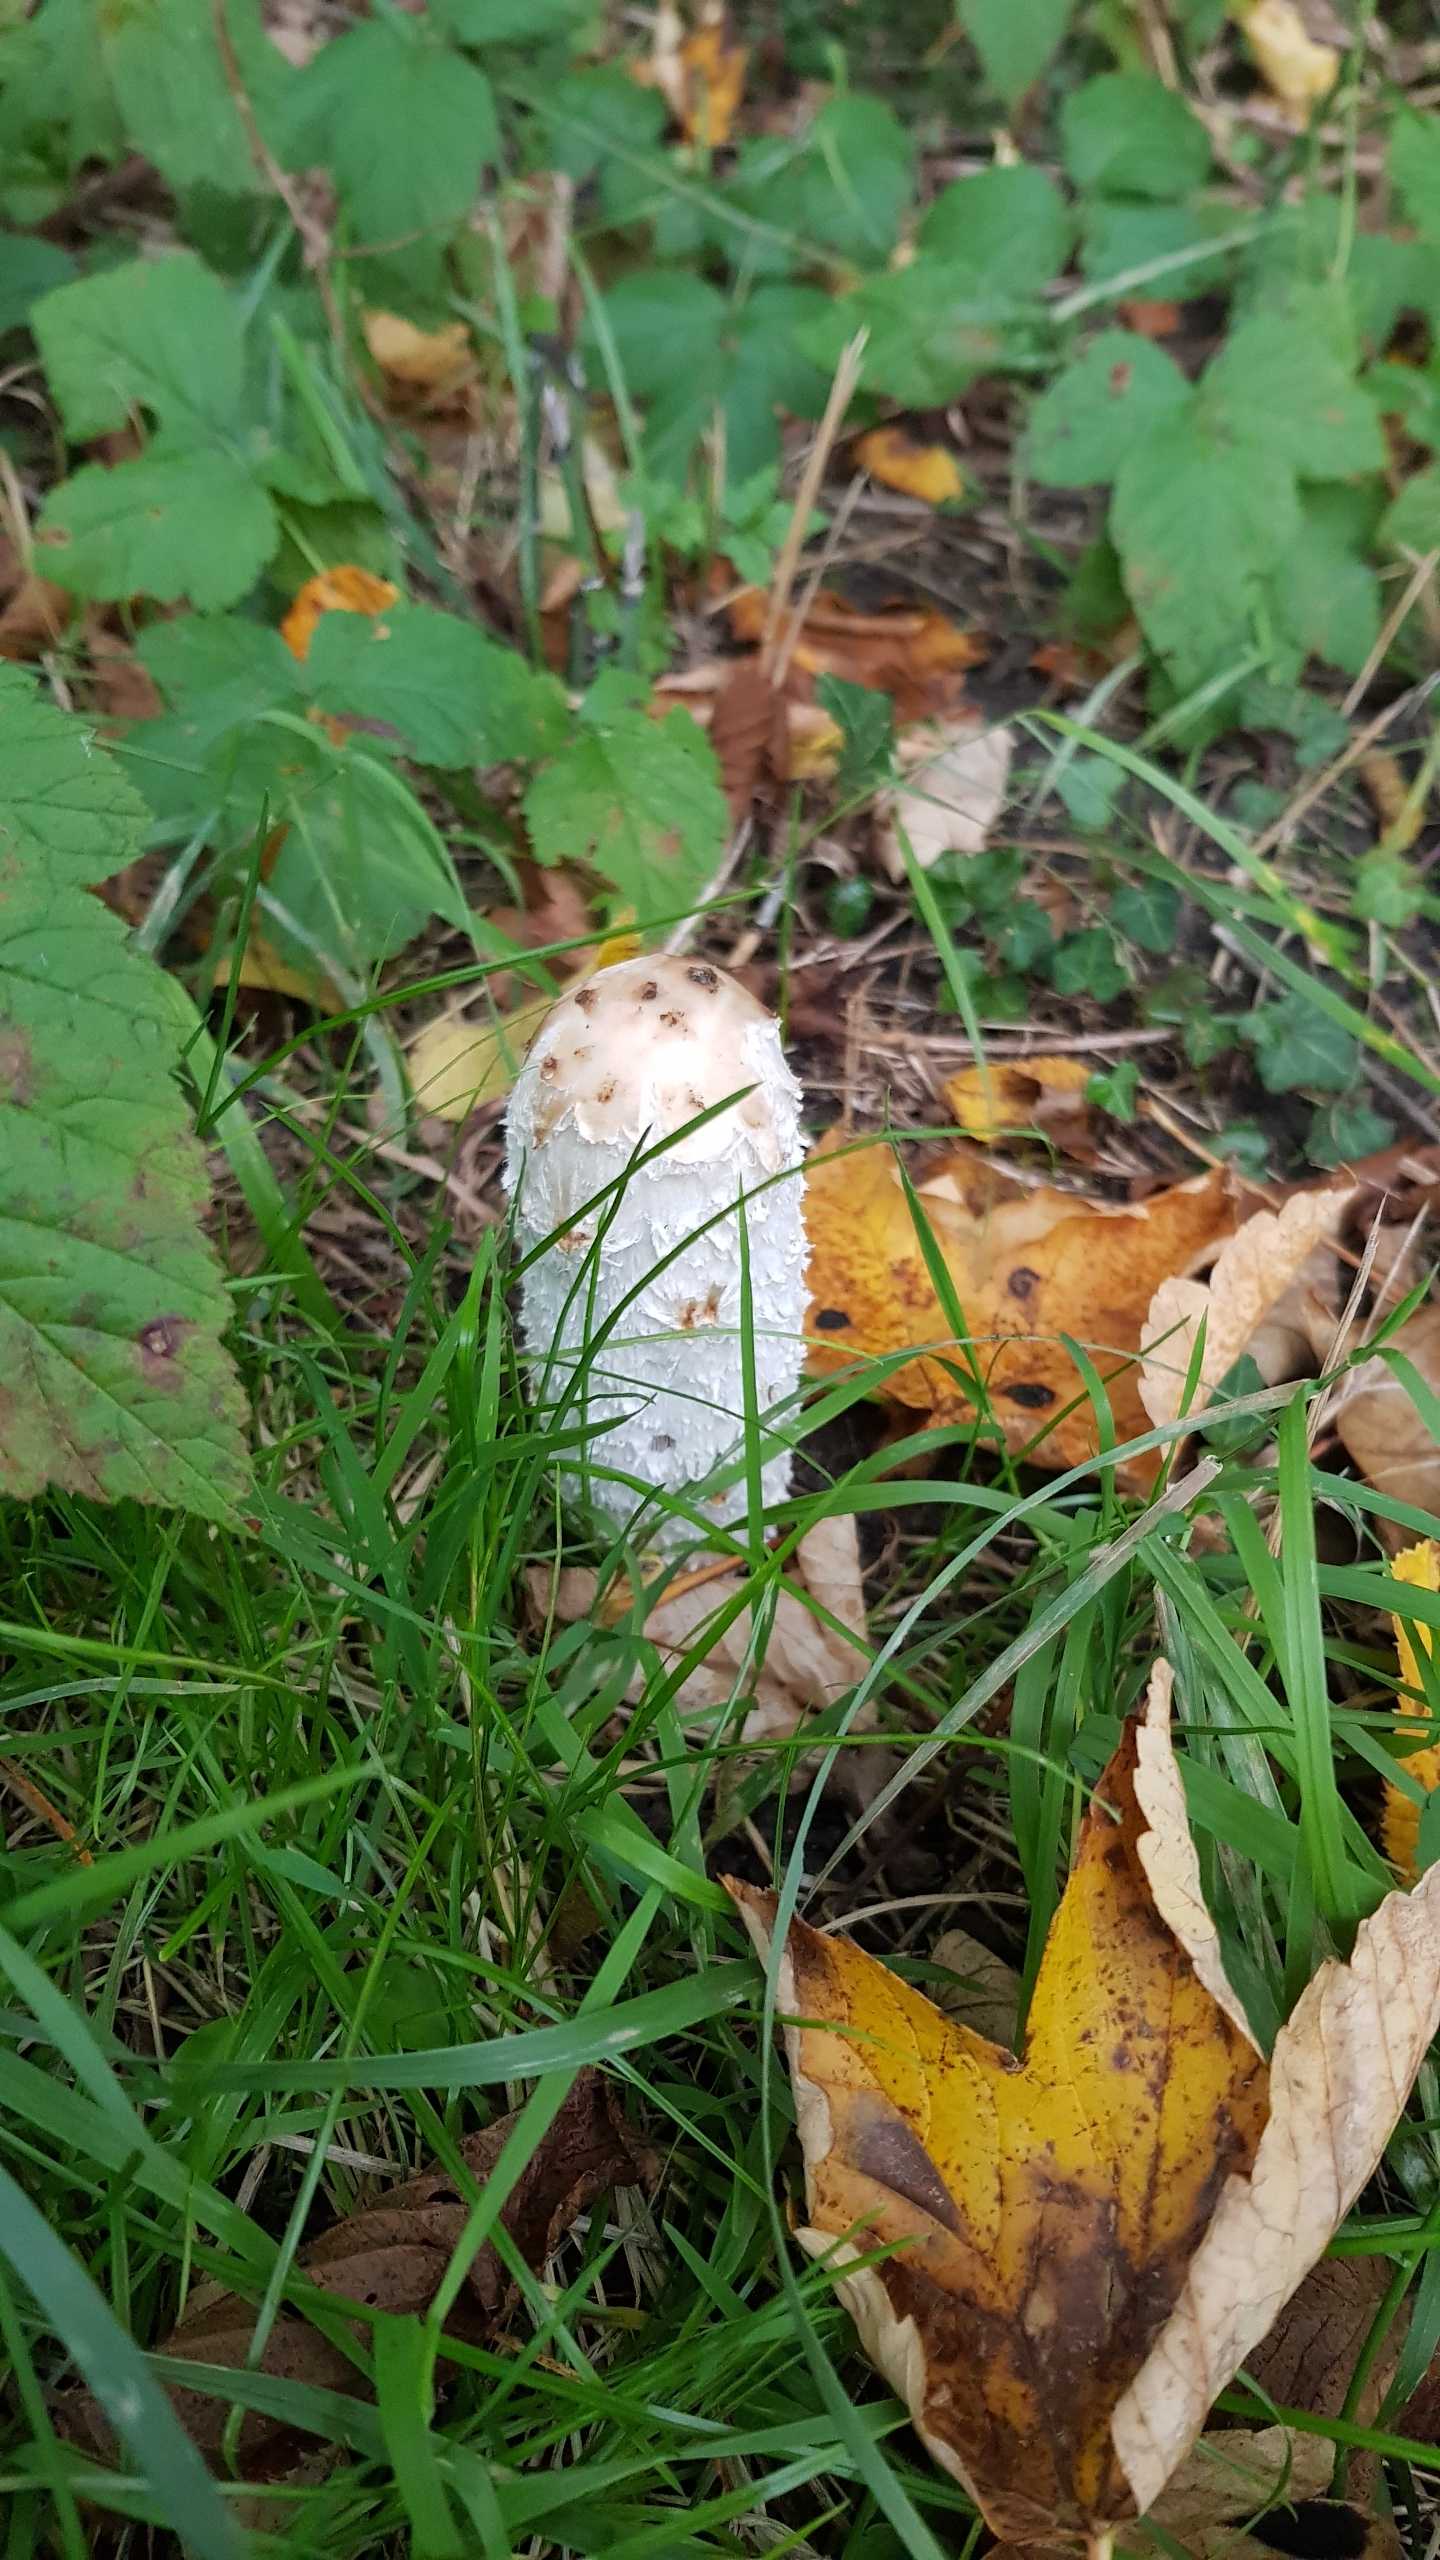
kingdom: Fungi
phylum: Basidiomycota
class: Agaricomycetes
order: Agaricales
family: Agaricaceae
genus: Coprinus
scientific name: Coprinus comatus
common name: Stor parykhat
